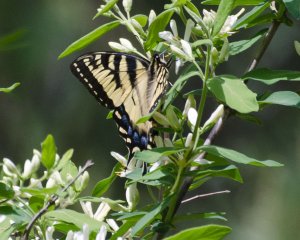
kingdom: Animalia
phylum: Arthropoda
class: Insecta
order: Lepidoptera
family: Papilionidae
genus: Pterourus
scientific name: Pterourus canadensis
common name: Canadian Tiger Swallowtail
